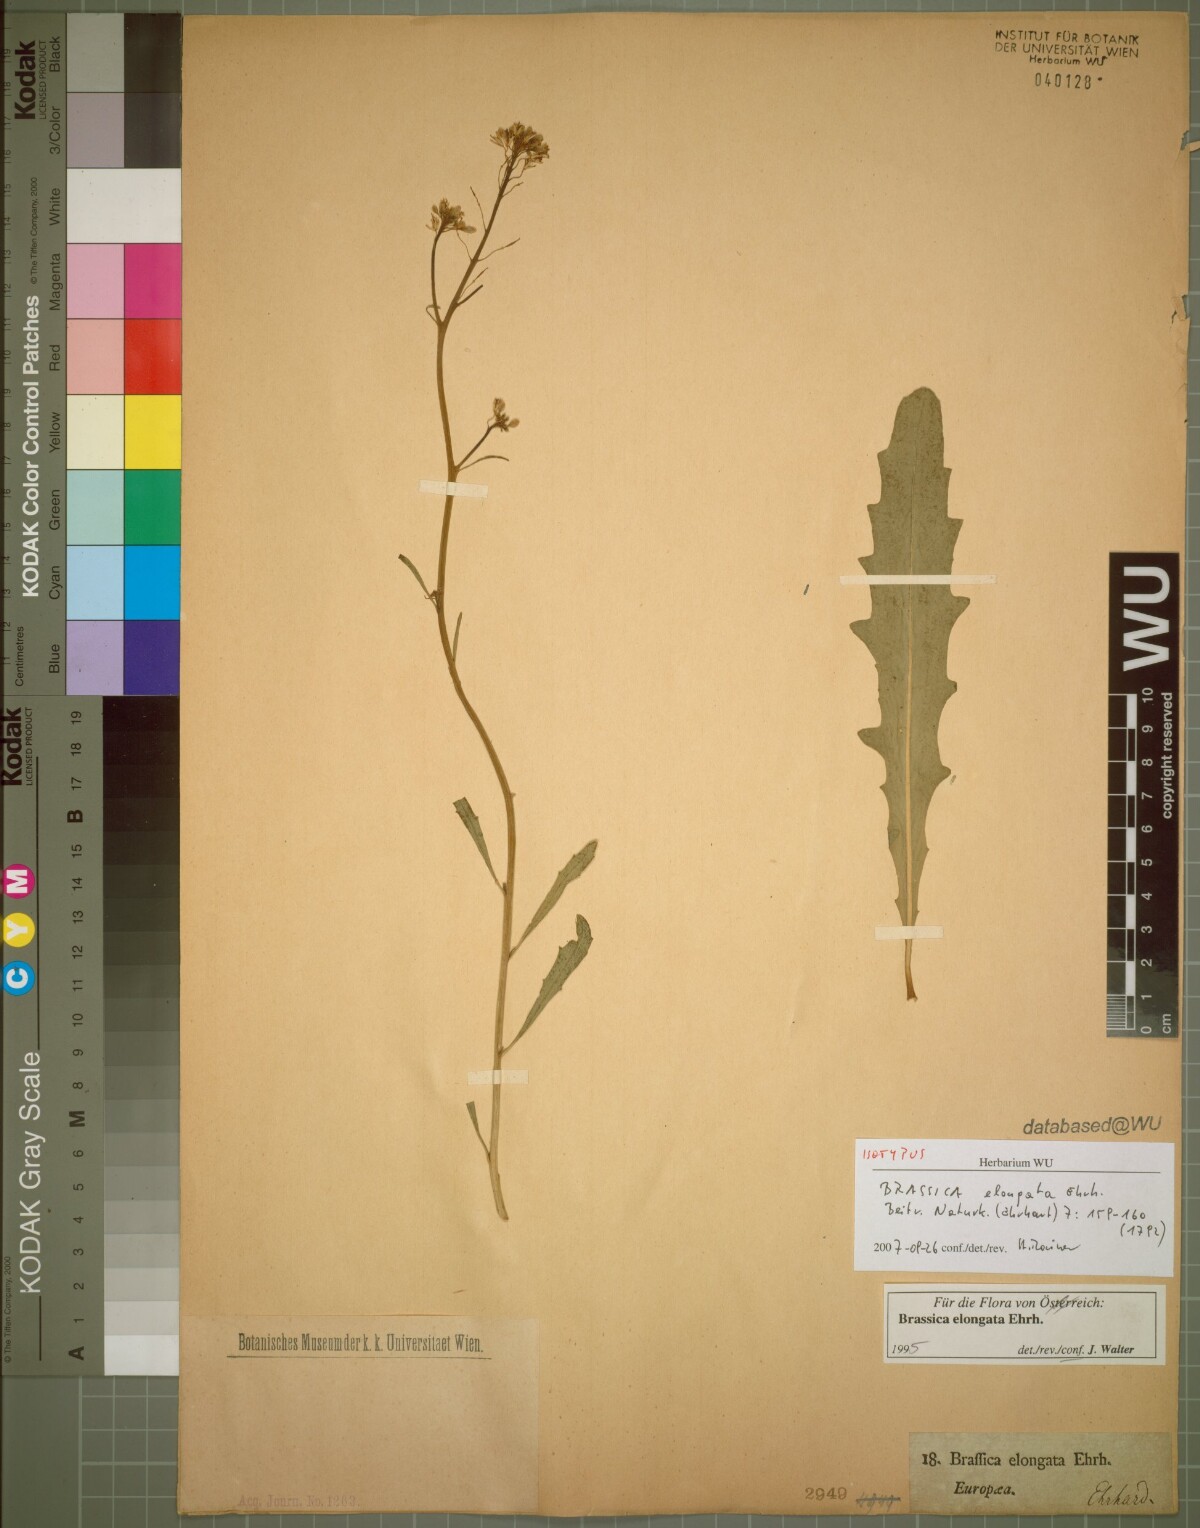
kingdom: Plantae
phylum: Tracheophyta
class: Magnoliopsida
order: Brassicales
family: Brassicaceae
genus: Brassica
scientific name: Brassica elongata
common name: Long-stalked rape
